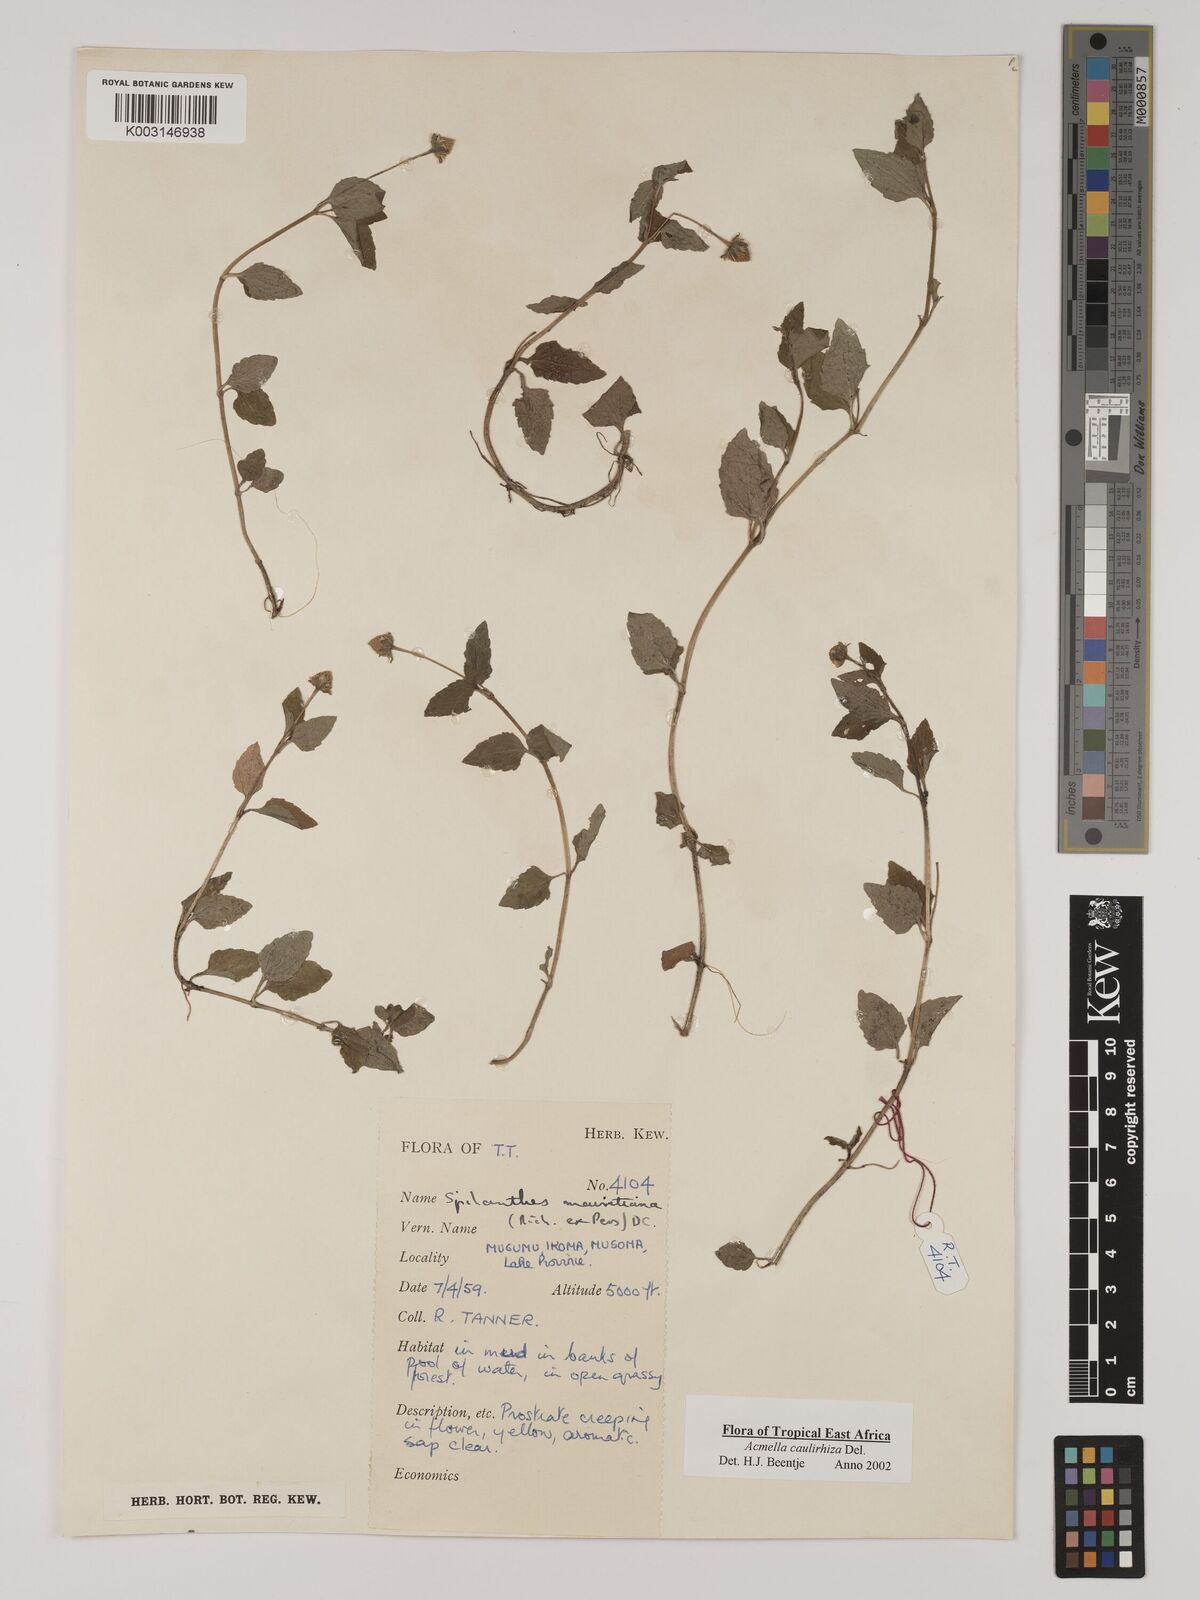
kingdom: Plantae
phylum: Tracheophyta
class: Magnoliopsida
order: Asterales
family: Asteraceae
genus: Acmella
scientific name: Acmella caulirhiza
